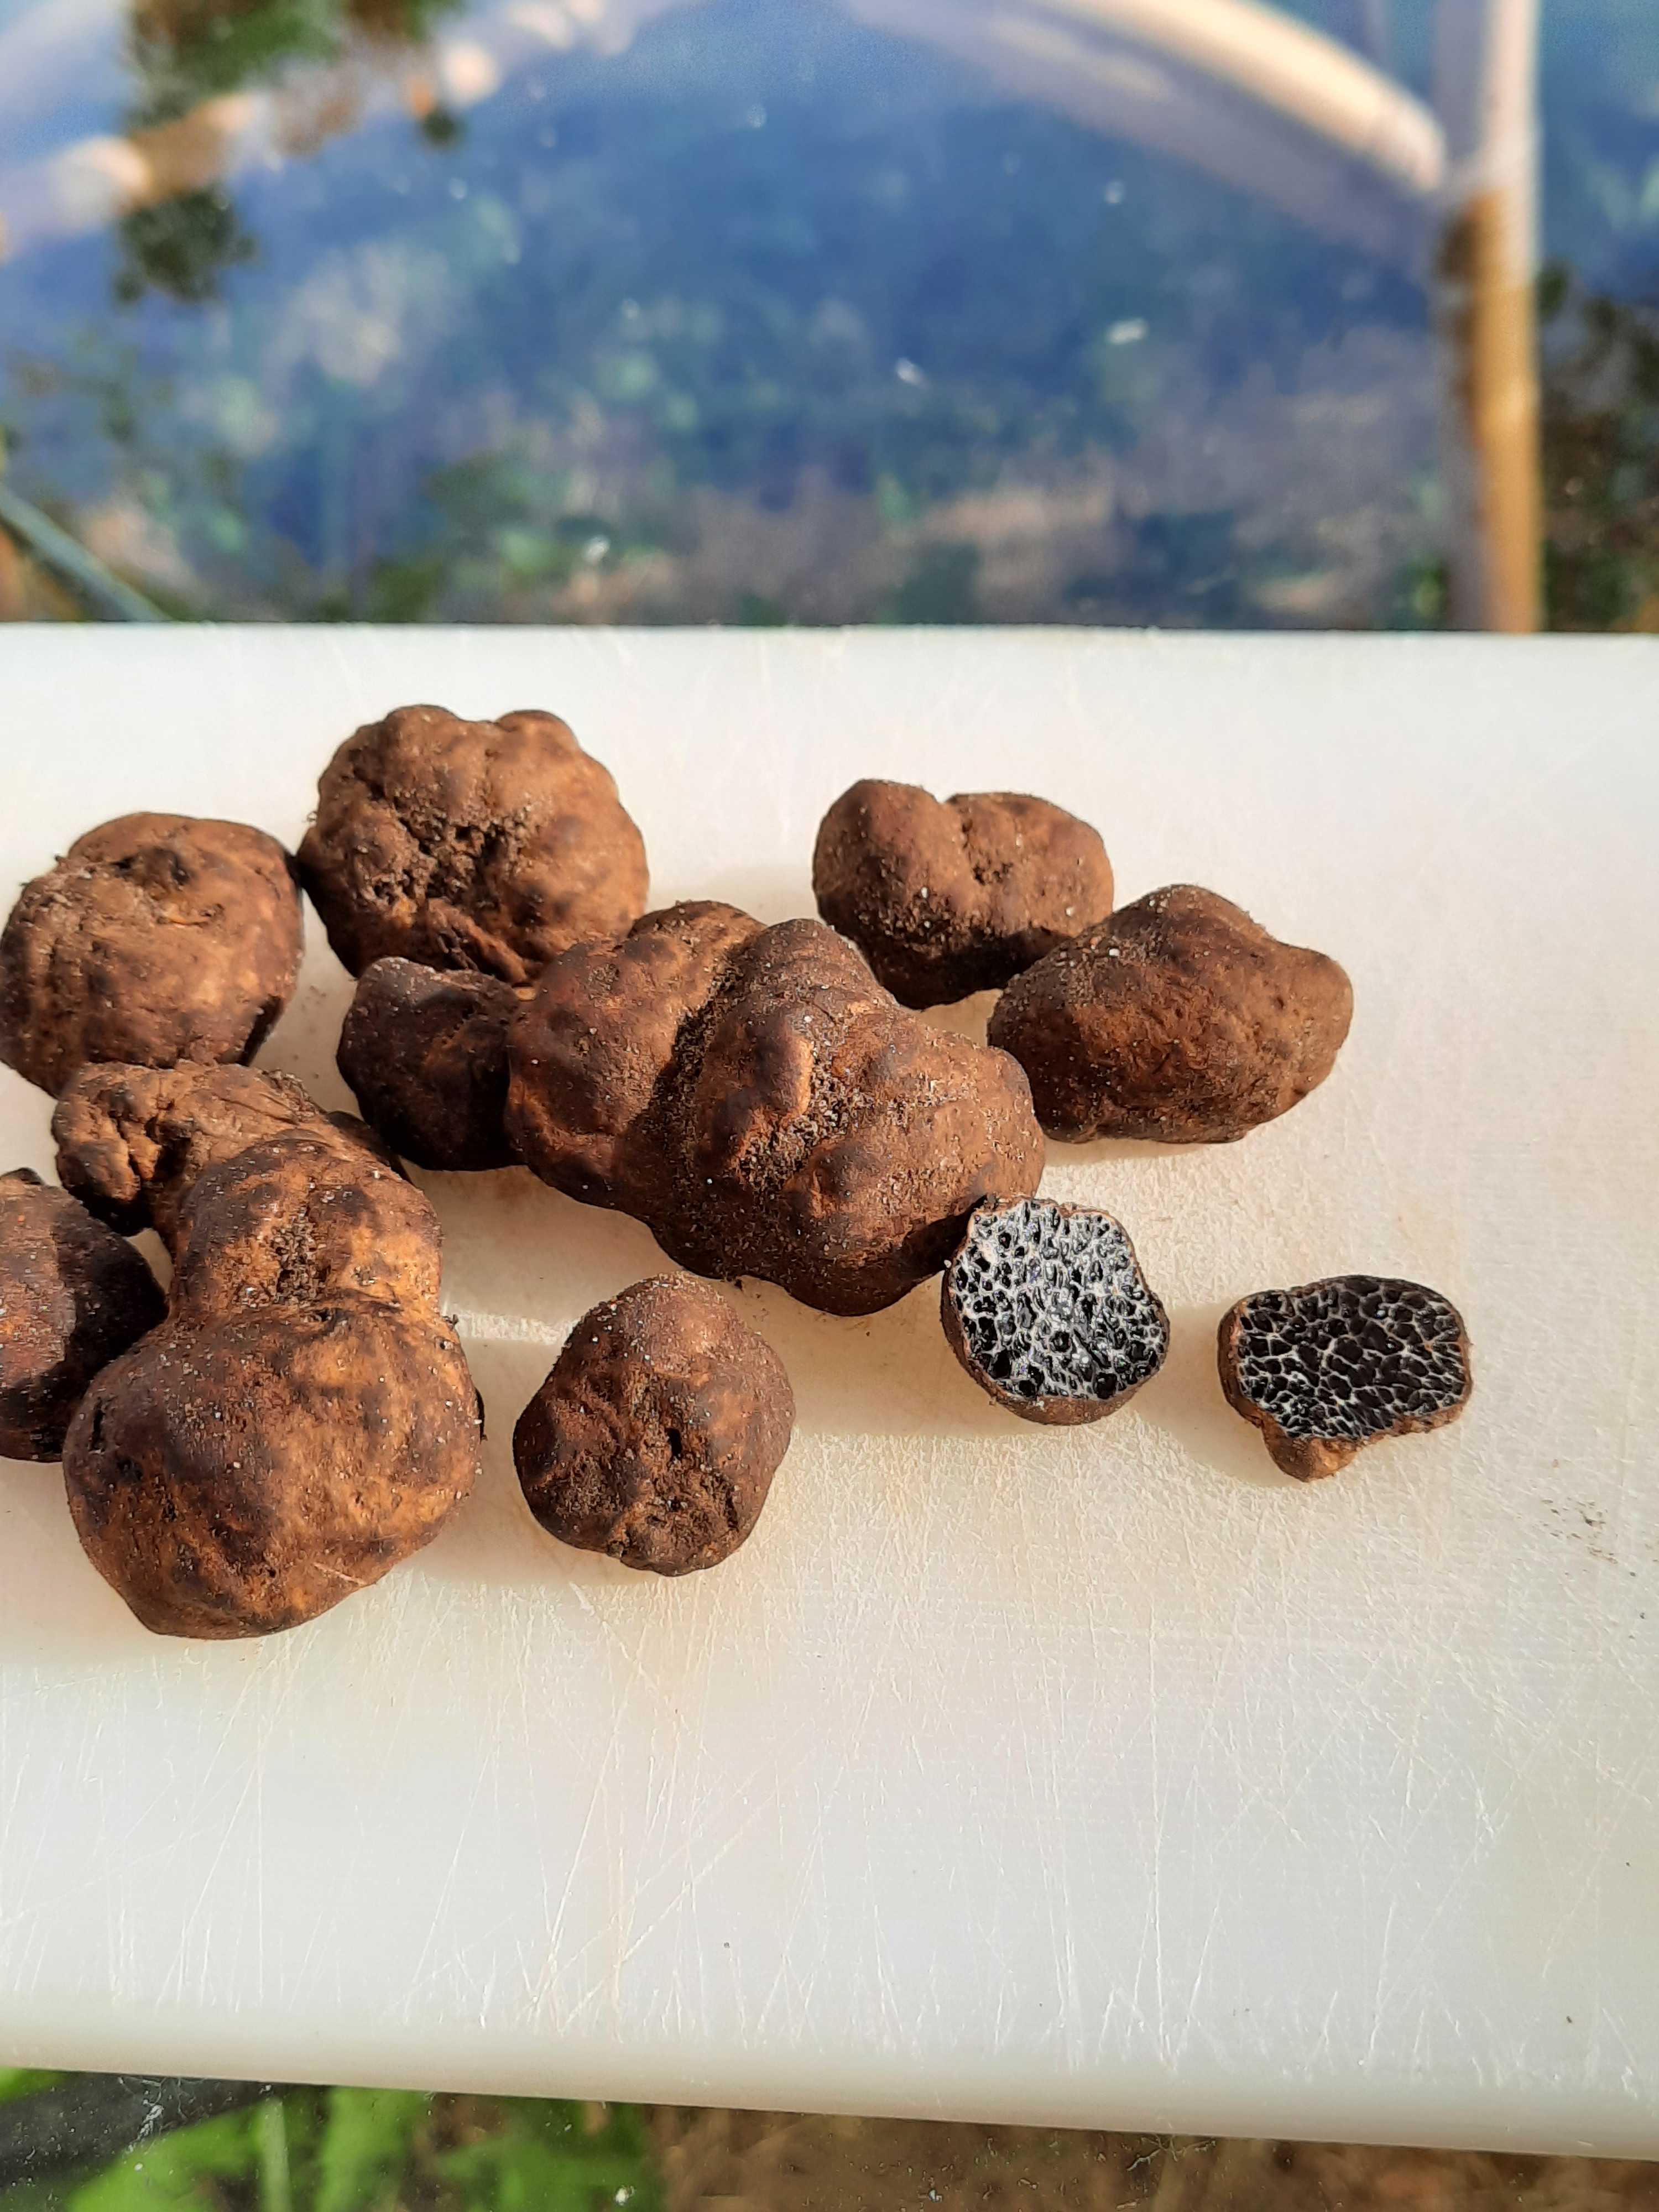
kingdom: Fungi
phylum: Basidiomycota
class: Agaricomycetes
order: Boletales
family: Paxillaceae
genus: Melanogaster
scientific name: Melanogaster
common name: slimtrøffel
